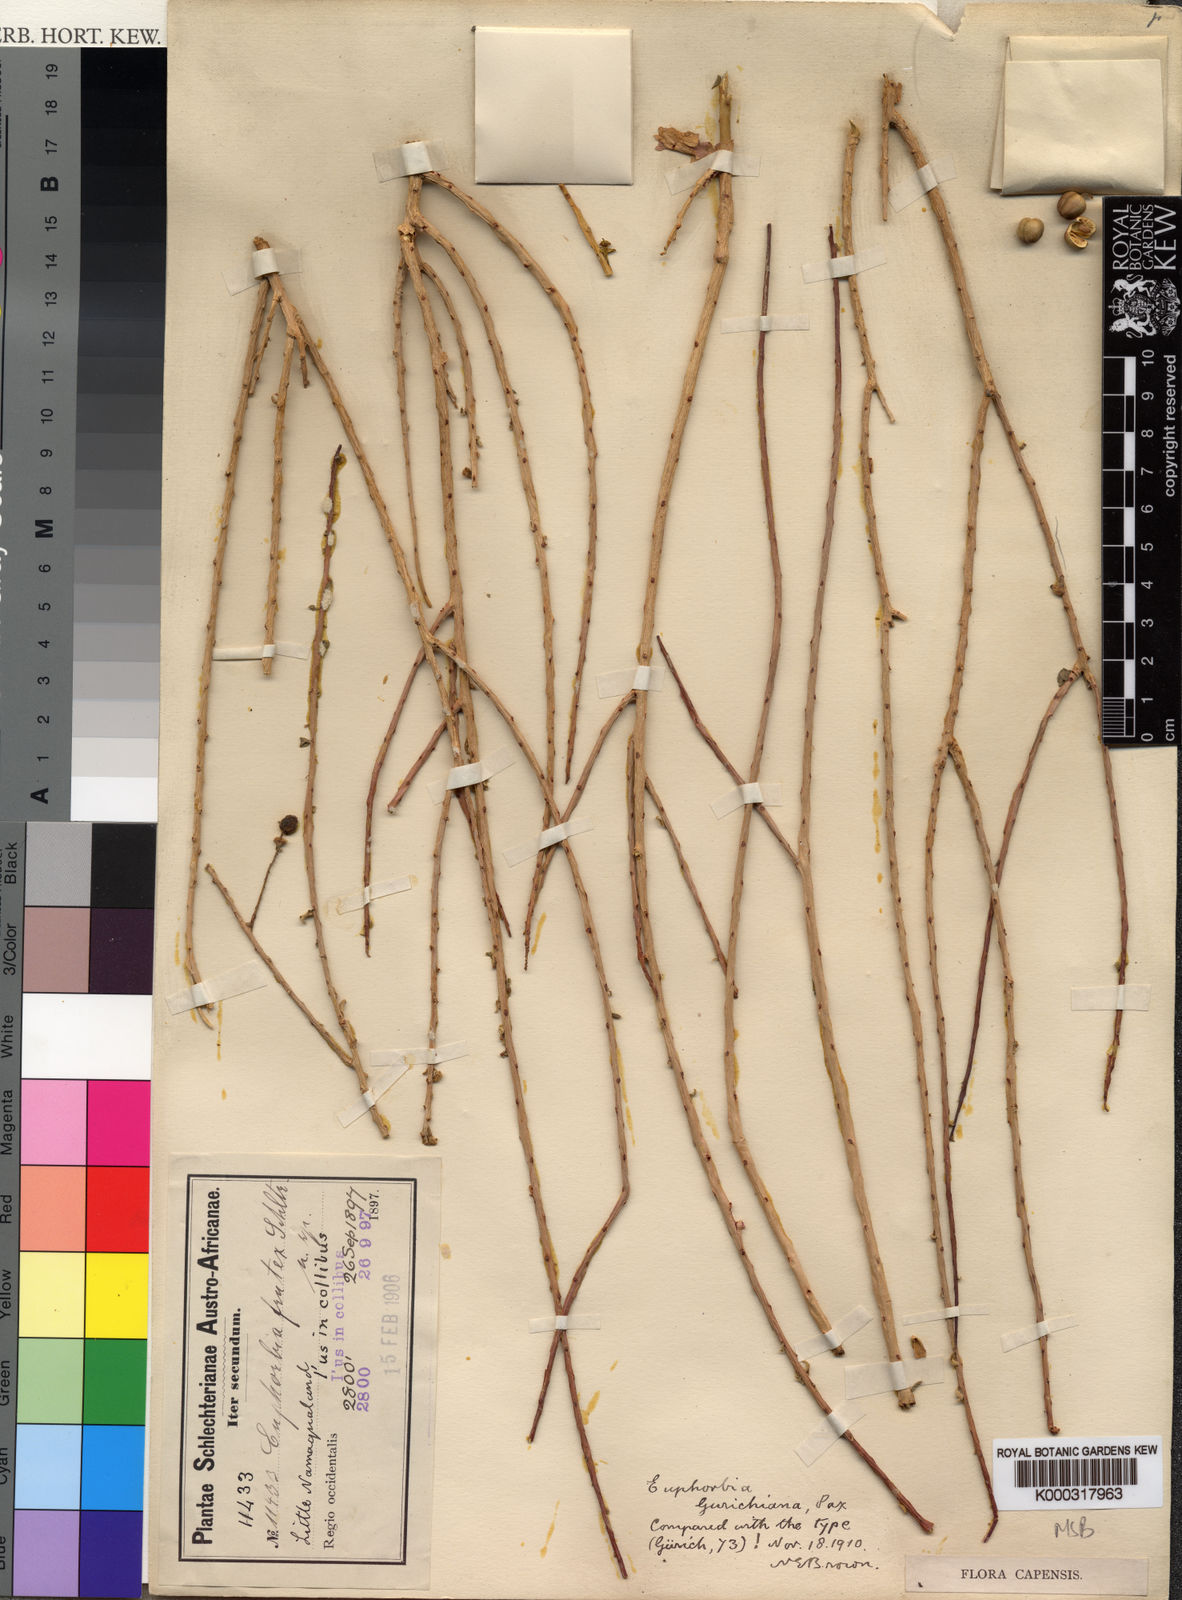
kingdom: Plantae
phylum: Tracheophyta
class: Magnoliopsida
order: Malpighiales
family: Euphorbiaceae
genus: Euphorbia
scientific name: Euphorbia
